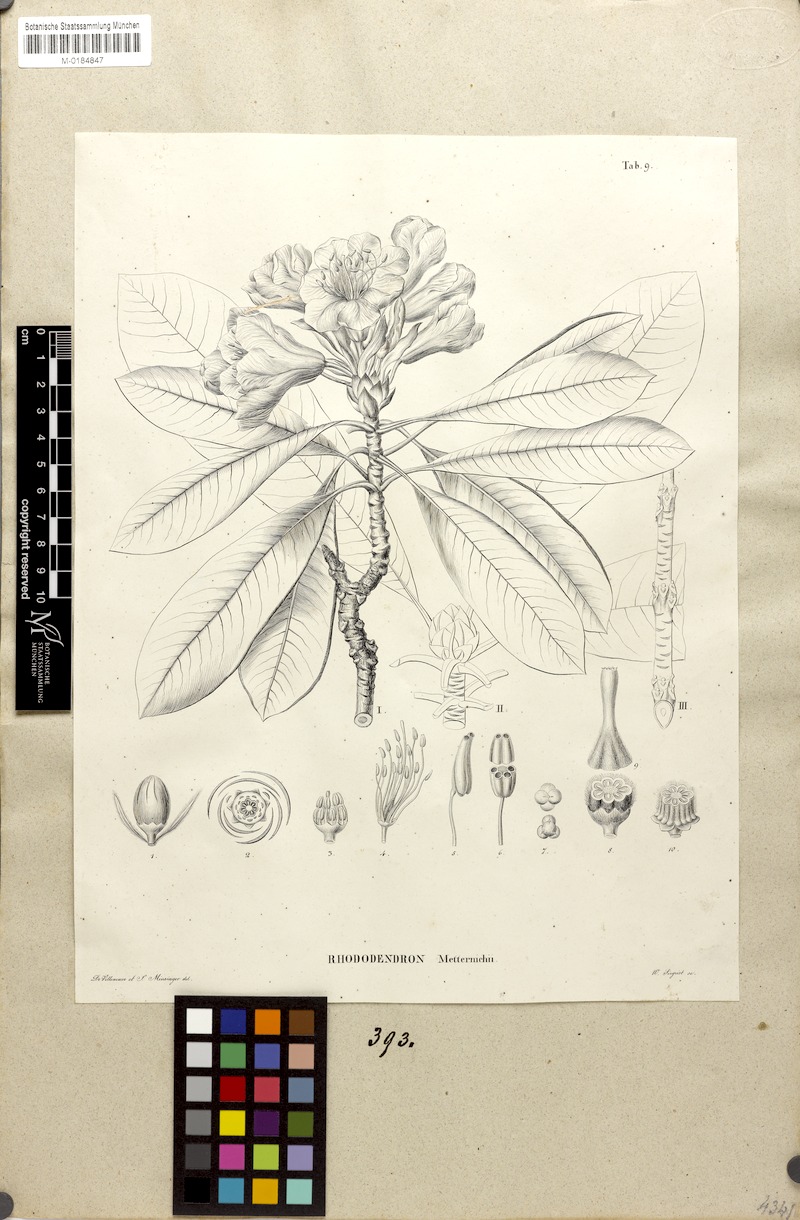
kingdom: Plantae
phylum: Tracheophyta
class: Magnoliopsida
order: Ericales
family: Ericaceae
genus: Rhododendron
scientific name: Rhododendron japonoheptamerum
